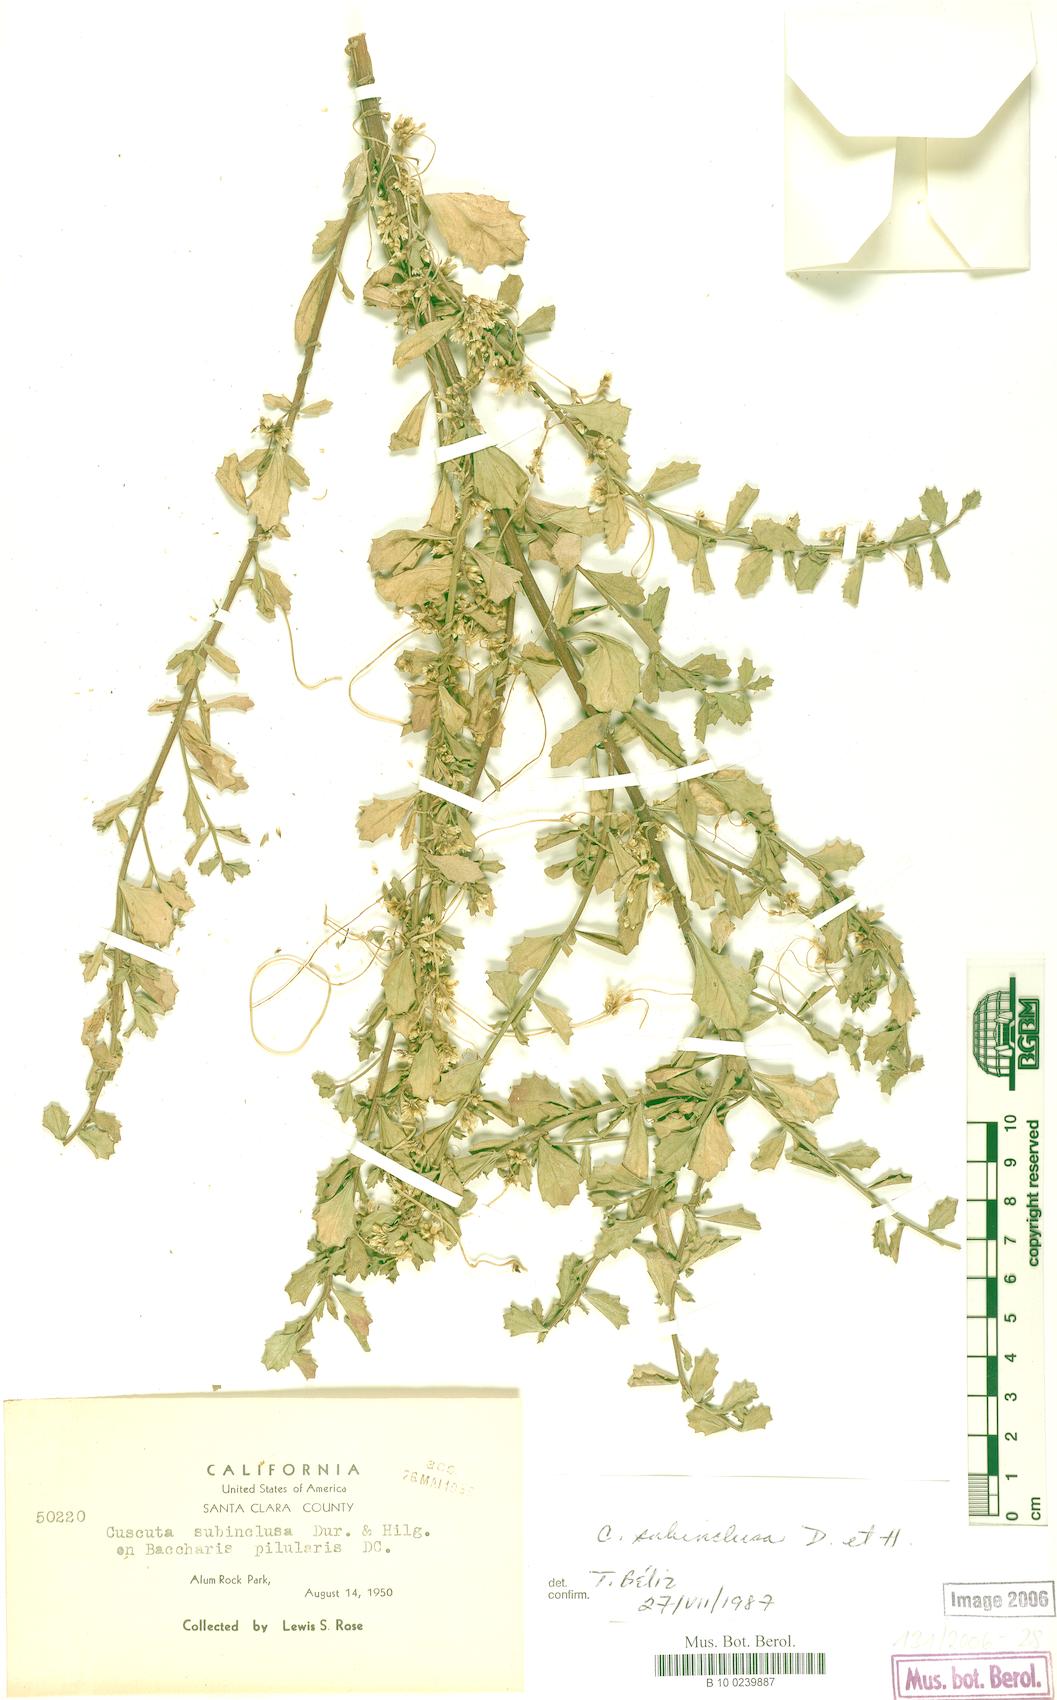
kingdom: Plantae
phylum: Tracheophyta
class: Magnoliopsida
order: Solanales
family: Convolvulaceae
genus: Cuscuta
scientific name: Cuscuta subinclusa
